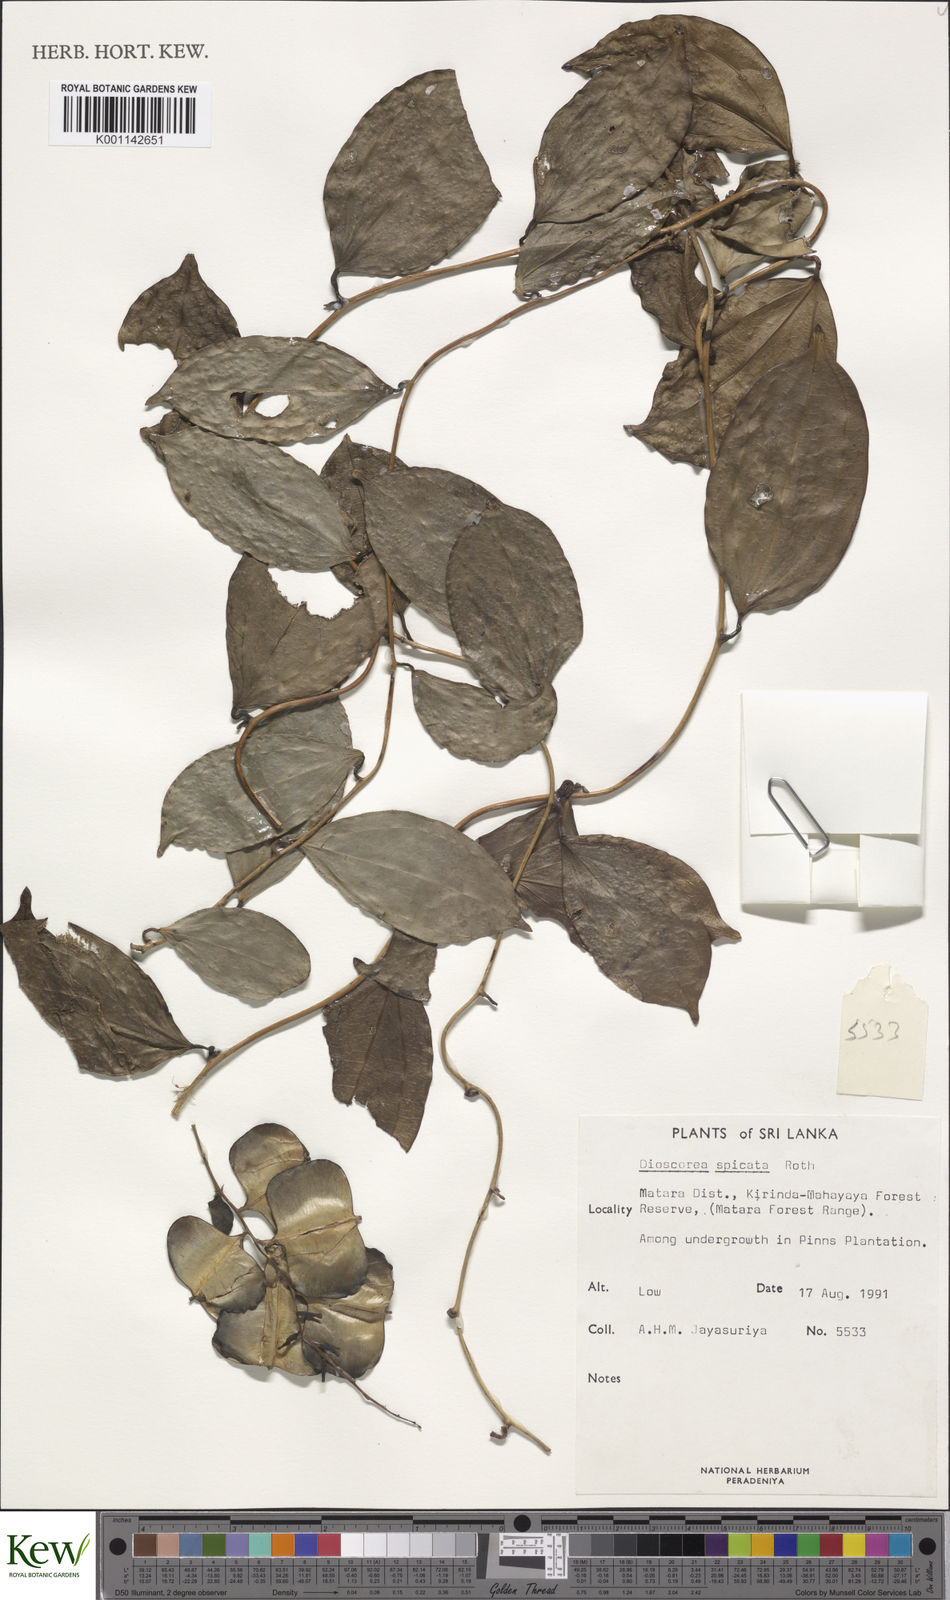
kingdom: Plantae
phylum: Tracheophyta
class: Liliopsida
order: Dioscoreales
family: Dioscoreaceae
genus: Dioscorea
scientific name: Dioscorea spicata
